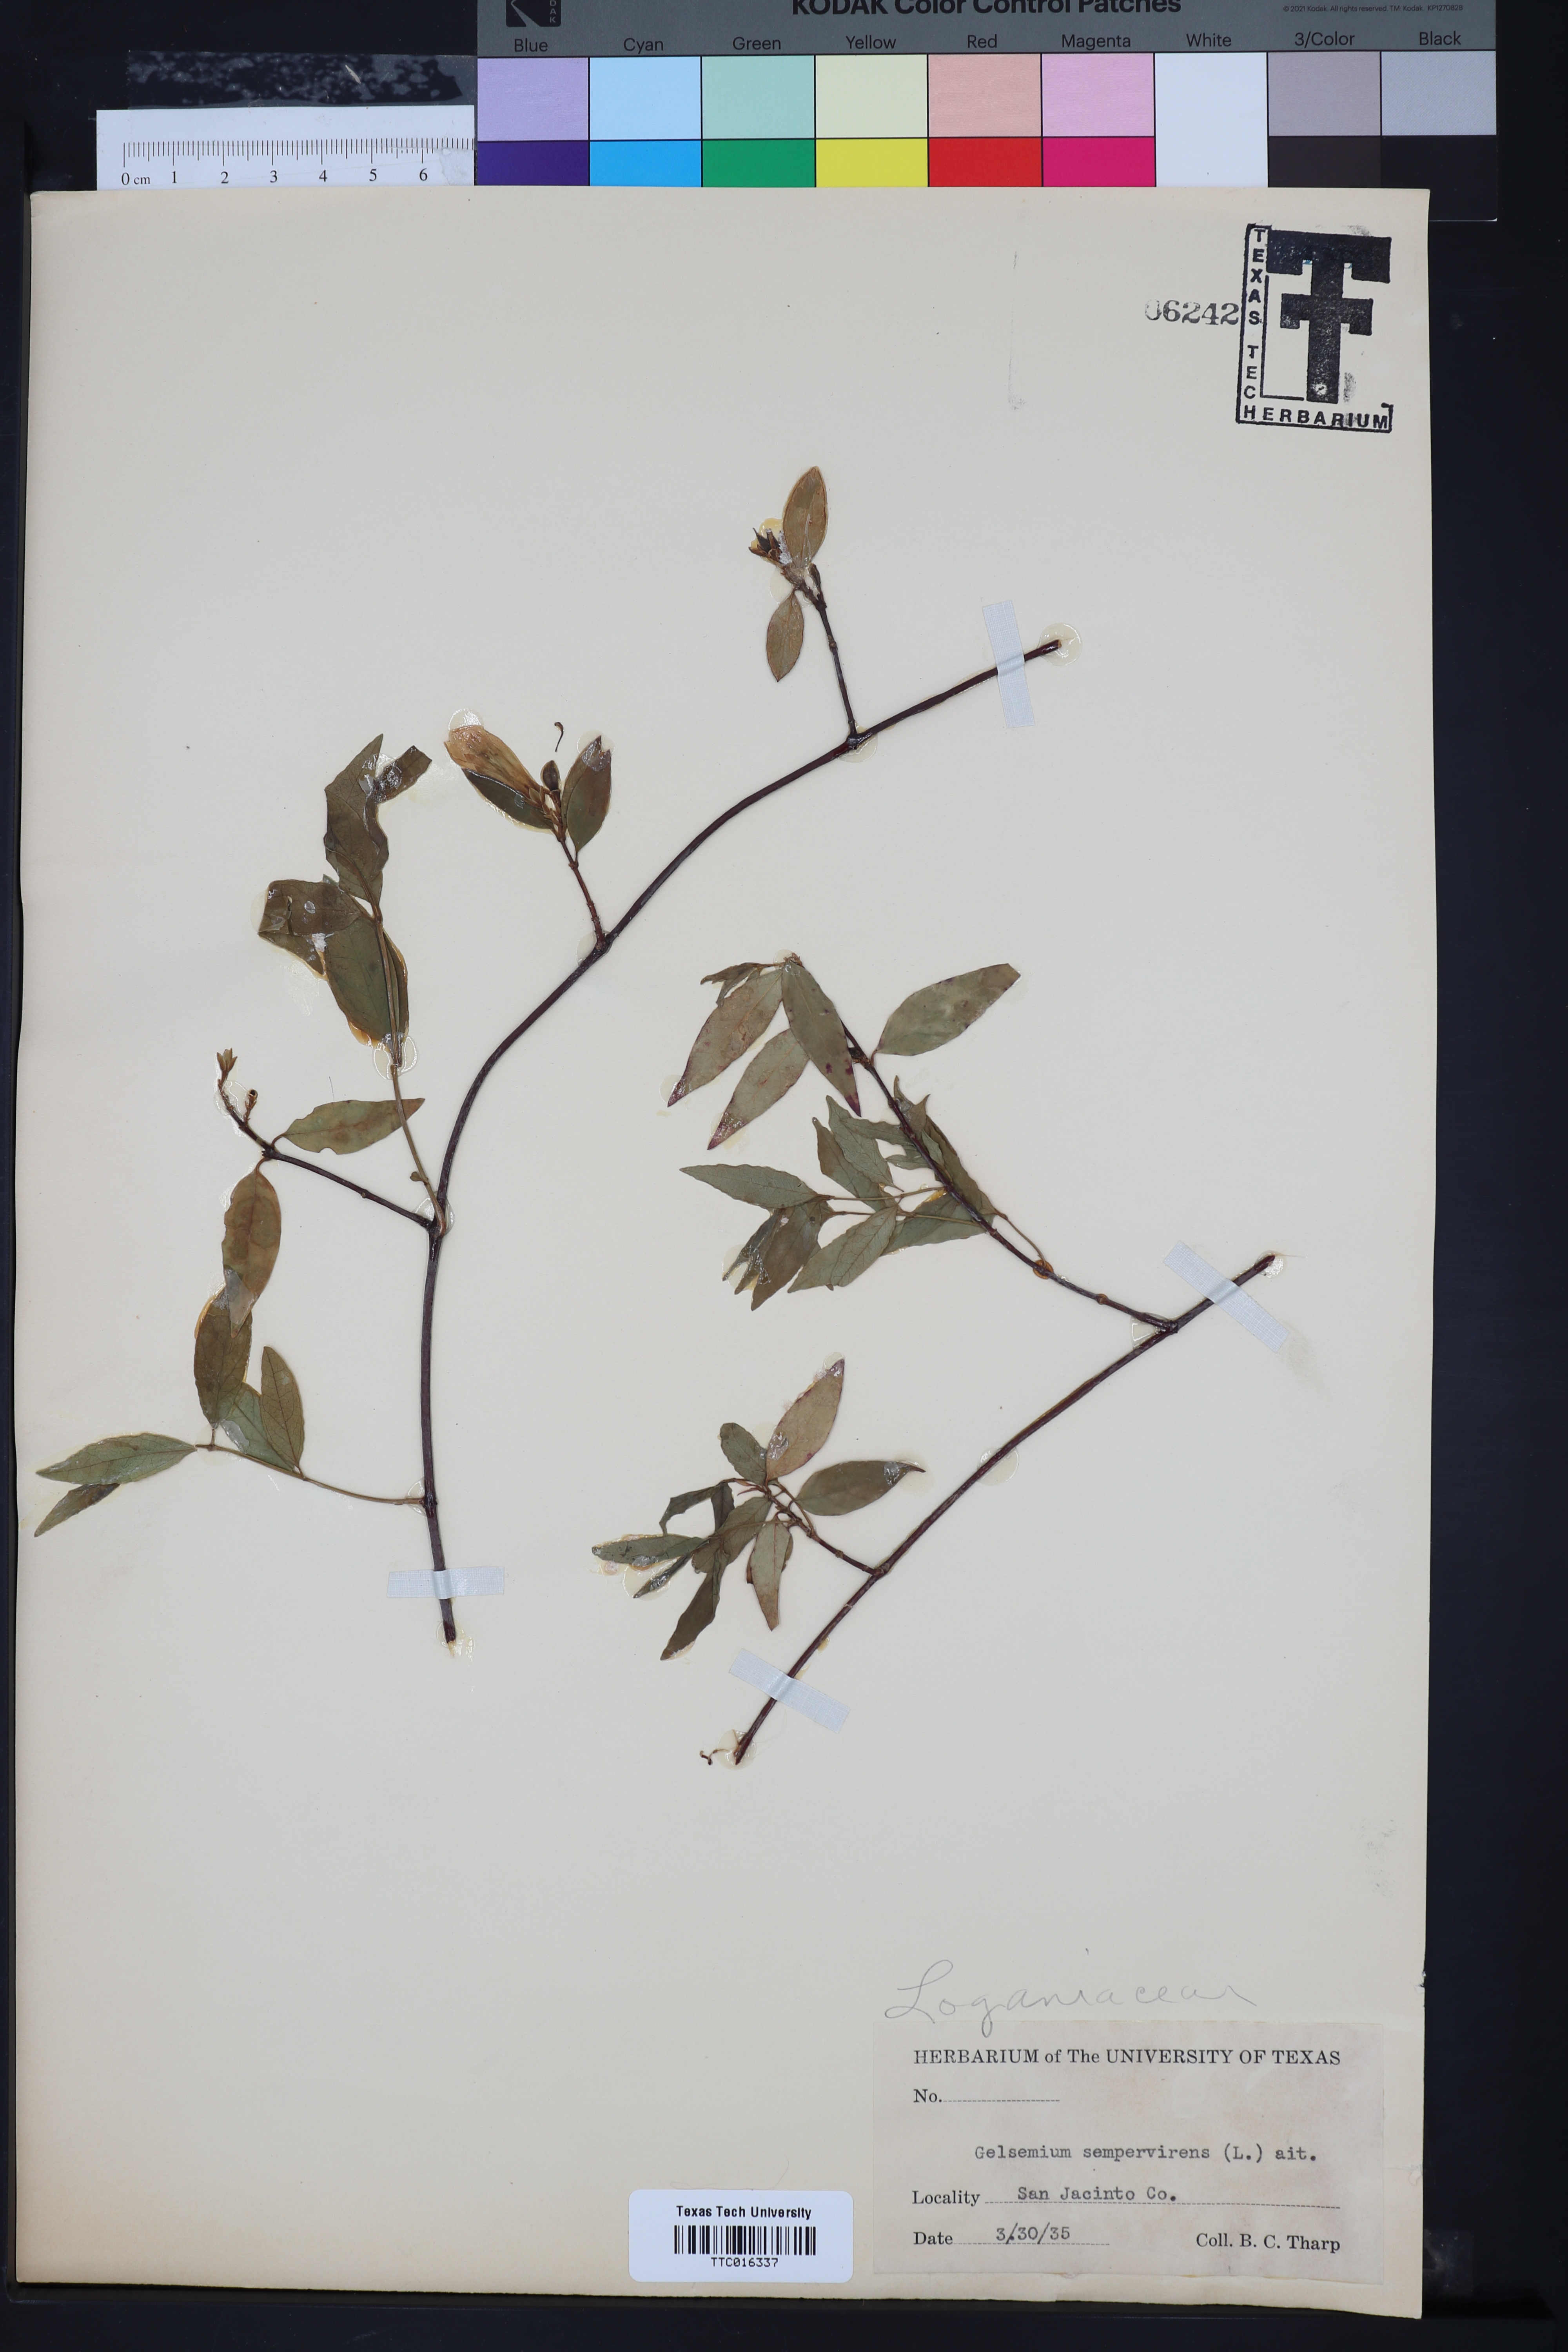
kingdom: Plantae
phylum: Tracheophyta
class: Magnoliopsida
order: Gentianales
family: Gelsemiaceae
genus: Gelsemium
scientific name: Gelsemium sempervirens
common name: Carolina-jasmine
